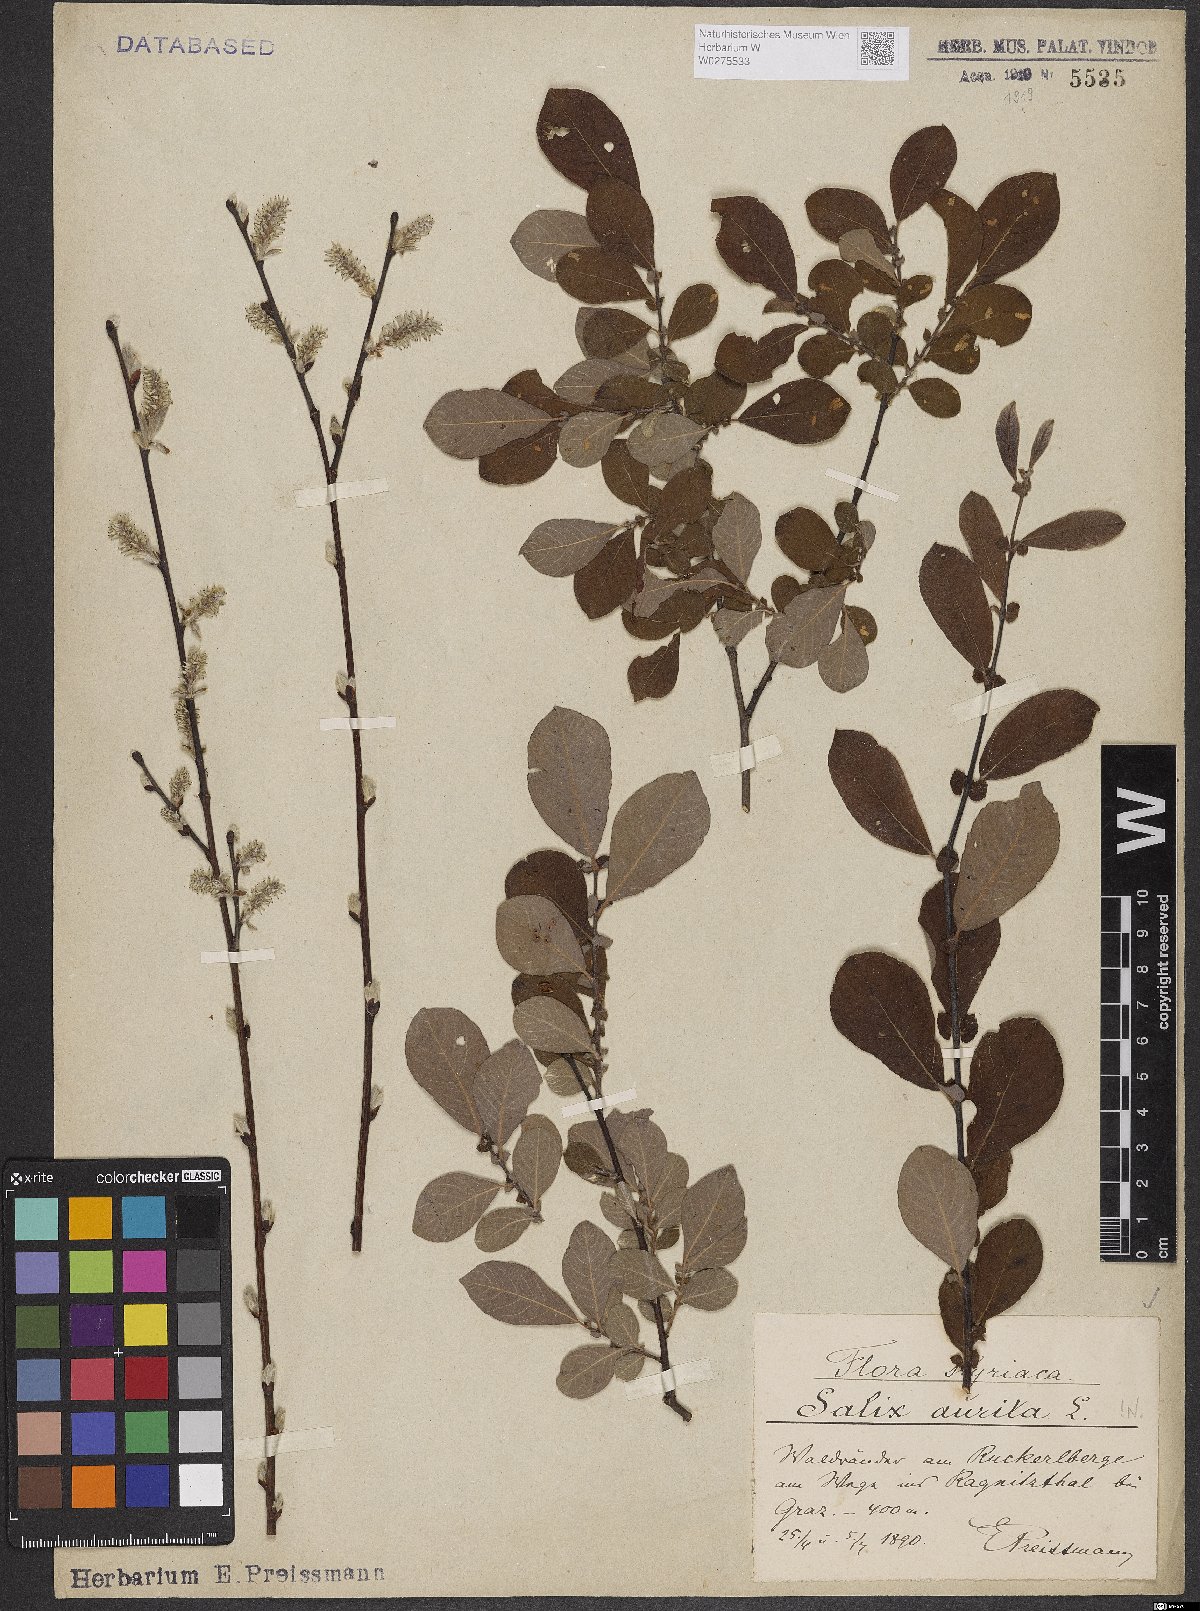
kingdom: Plantae
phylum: Tracheophyta
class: Magnoliopsida
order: Malpighiales
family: Salicaceae
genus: Salix
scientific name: Salix aurita
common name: Eared willow
